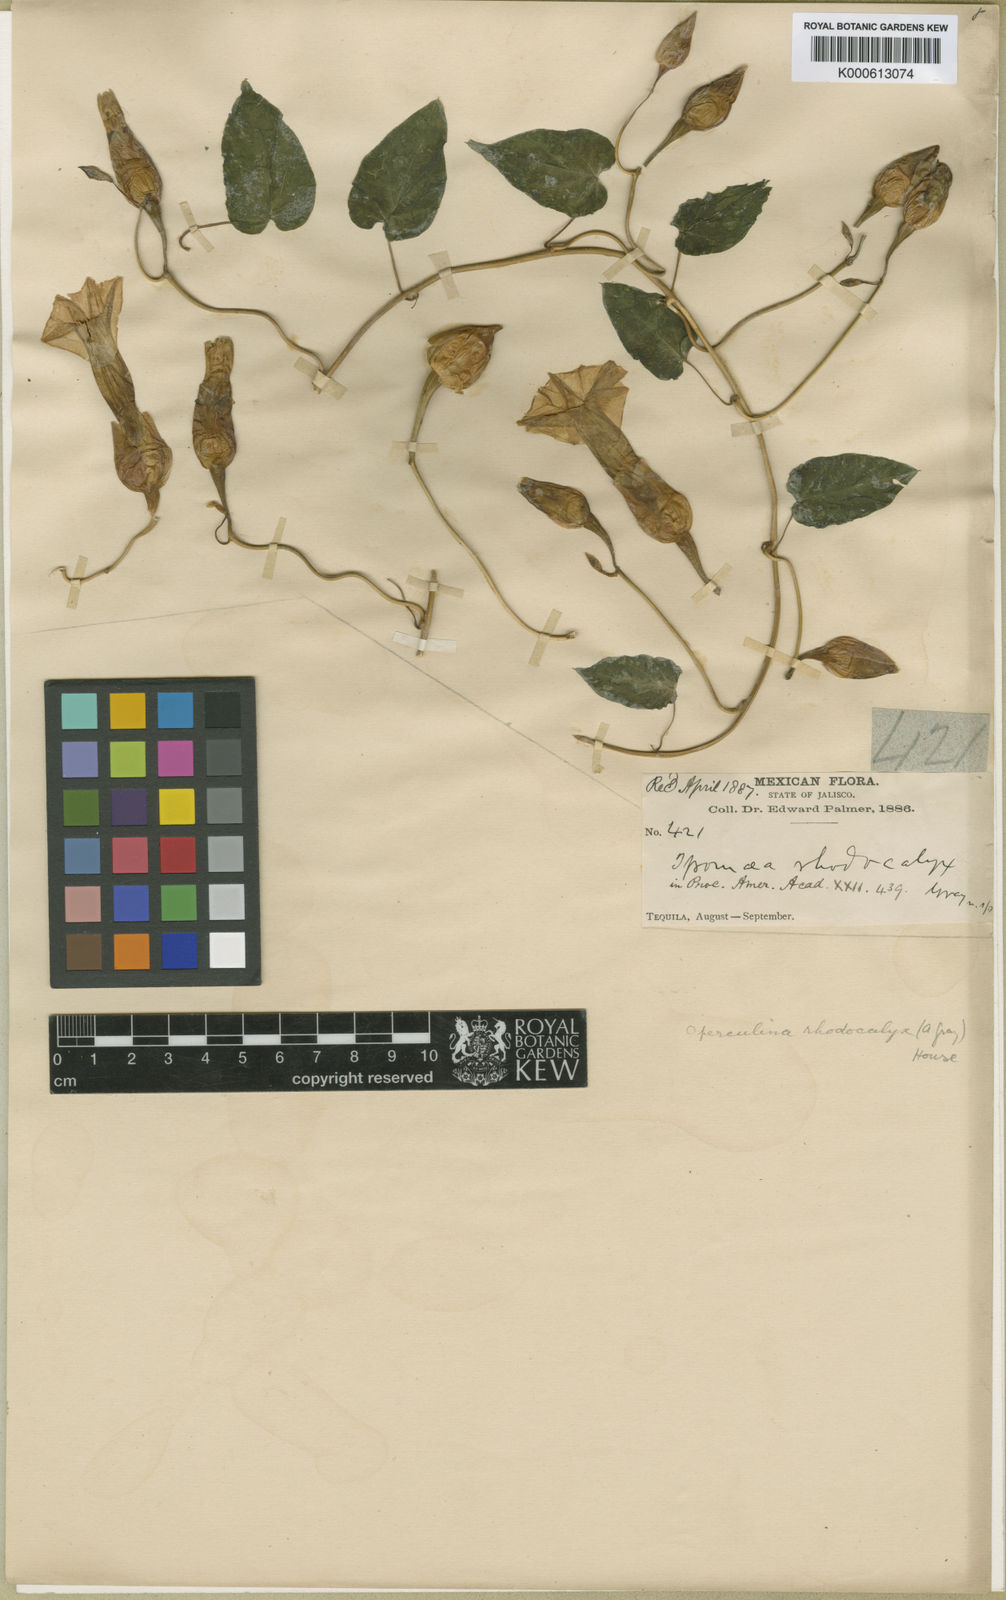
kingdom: Plantae
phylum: Tracheophyta
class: Magnoliopsida
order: Solanales
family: Convolvulaceae
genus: Operculina
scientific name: Operculina pteripes
